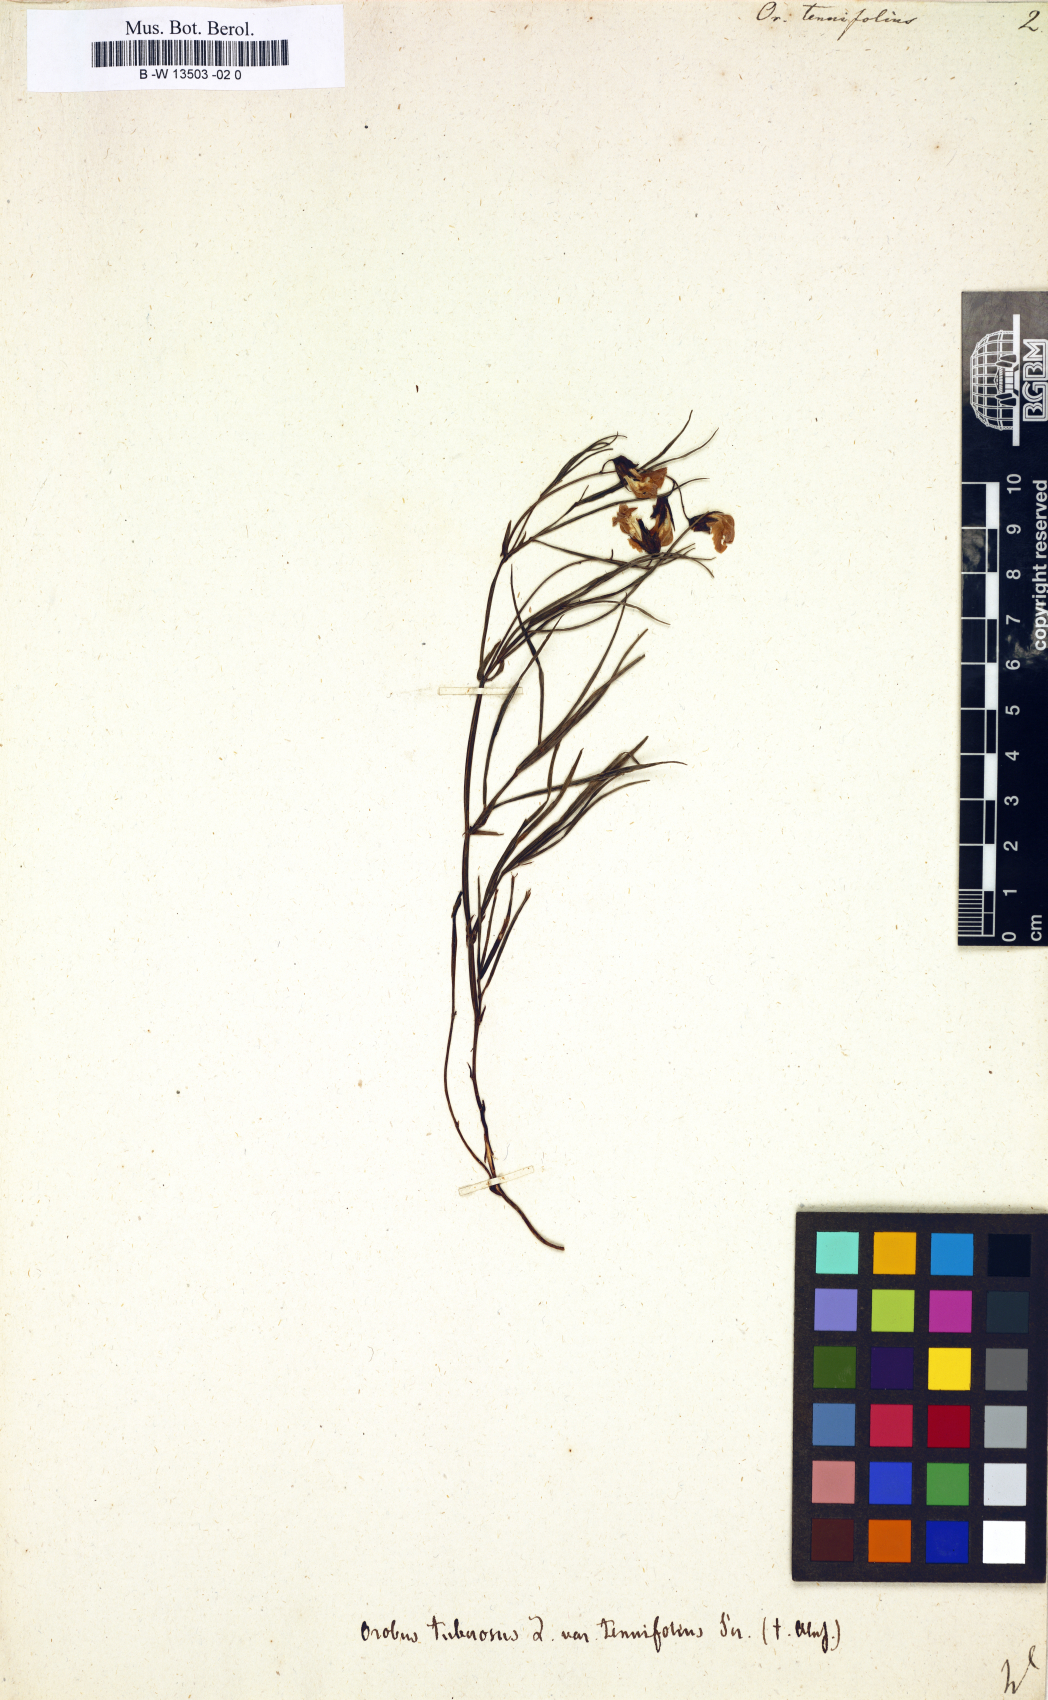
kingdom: Plantae
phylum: Tracheophyta
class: Magnoliopsida
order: Fabales
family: Fabaceae
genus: Lathyrus
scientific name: Lathyrus
